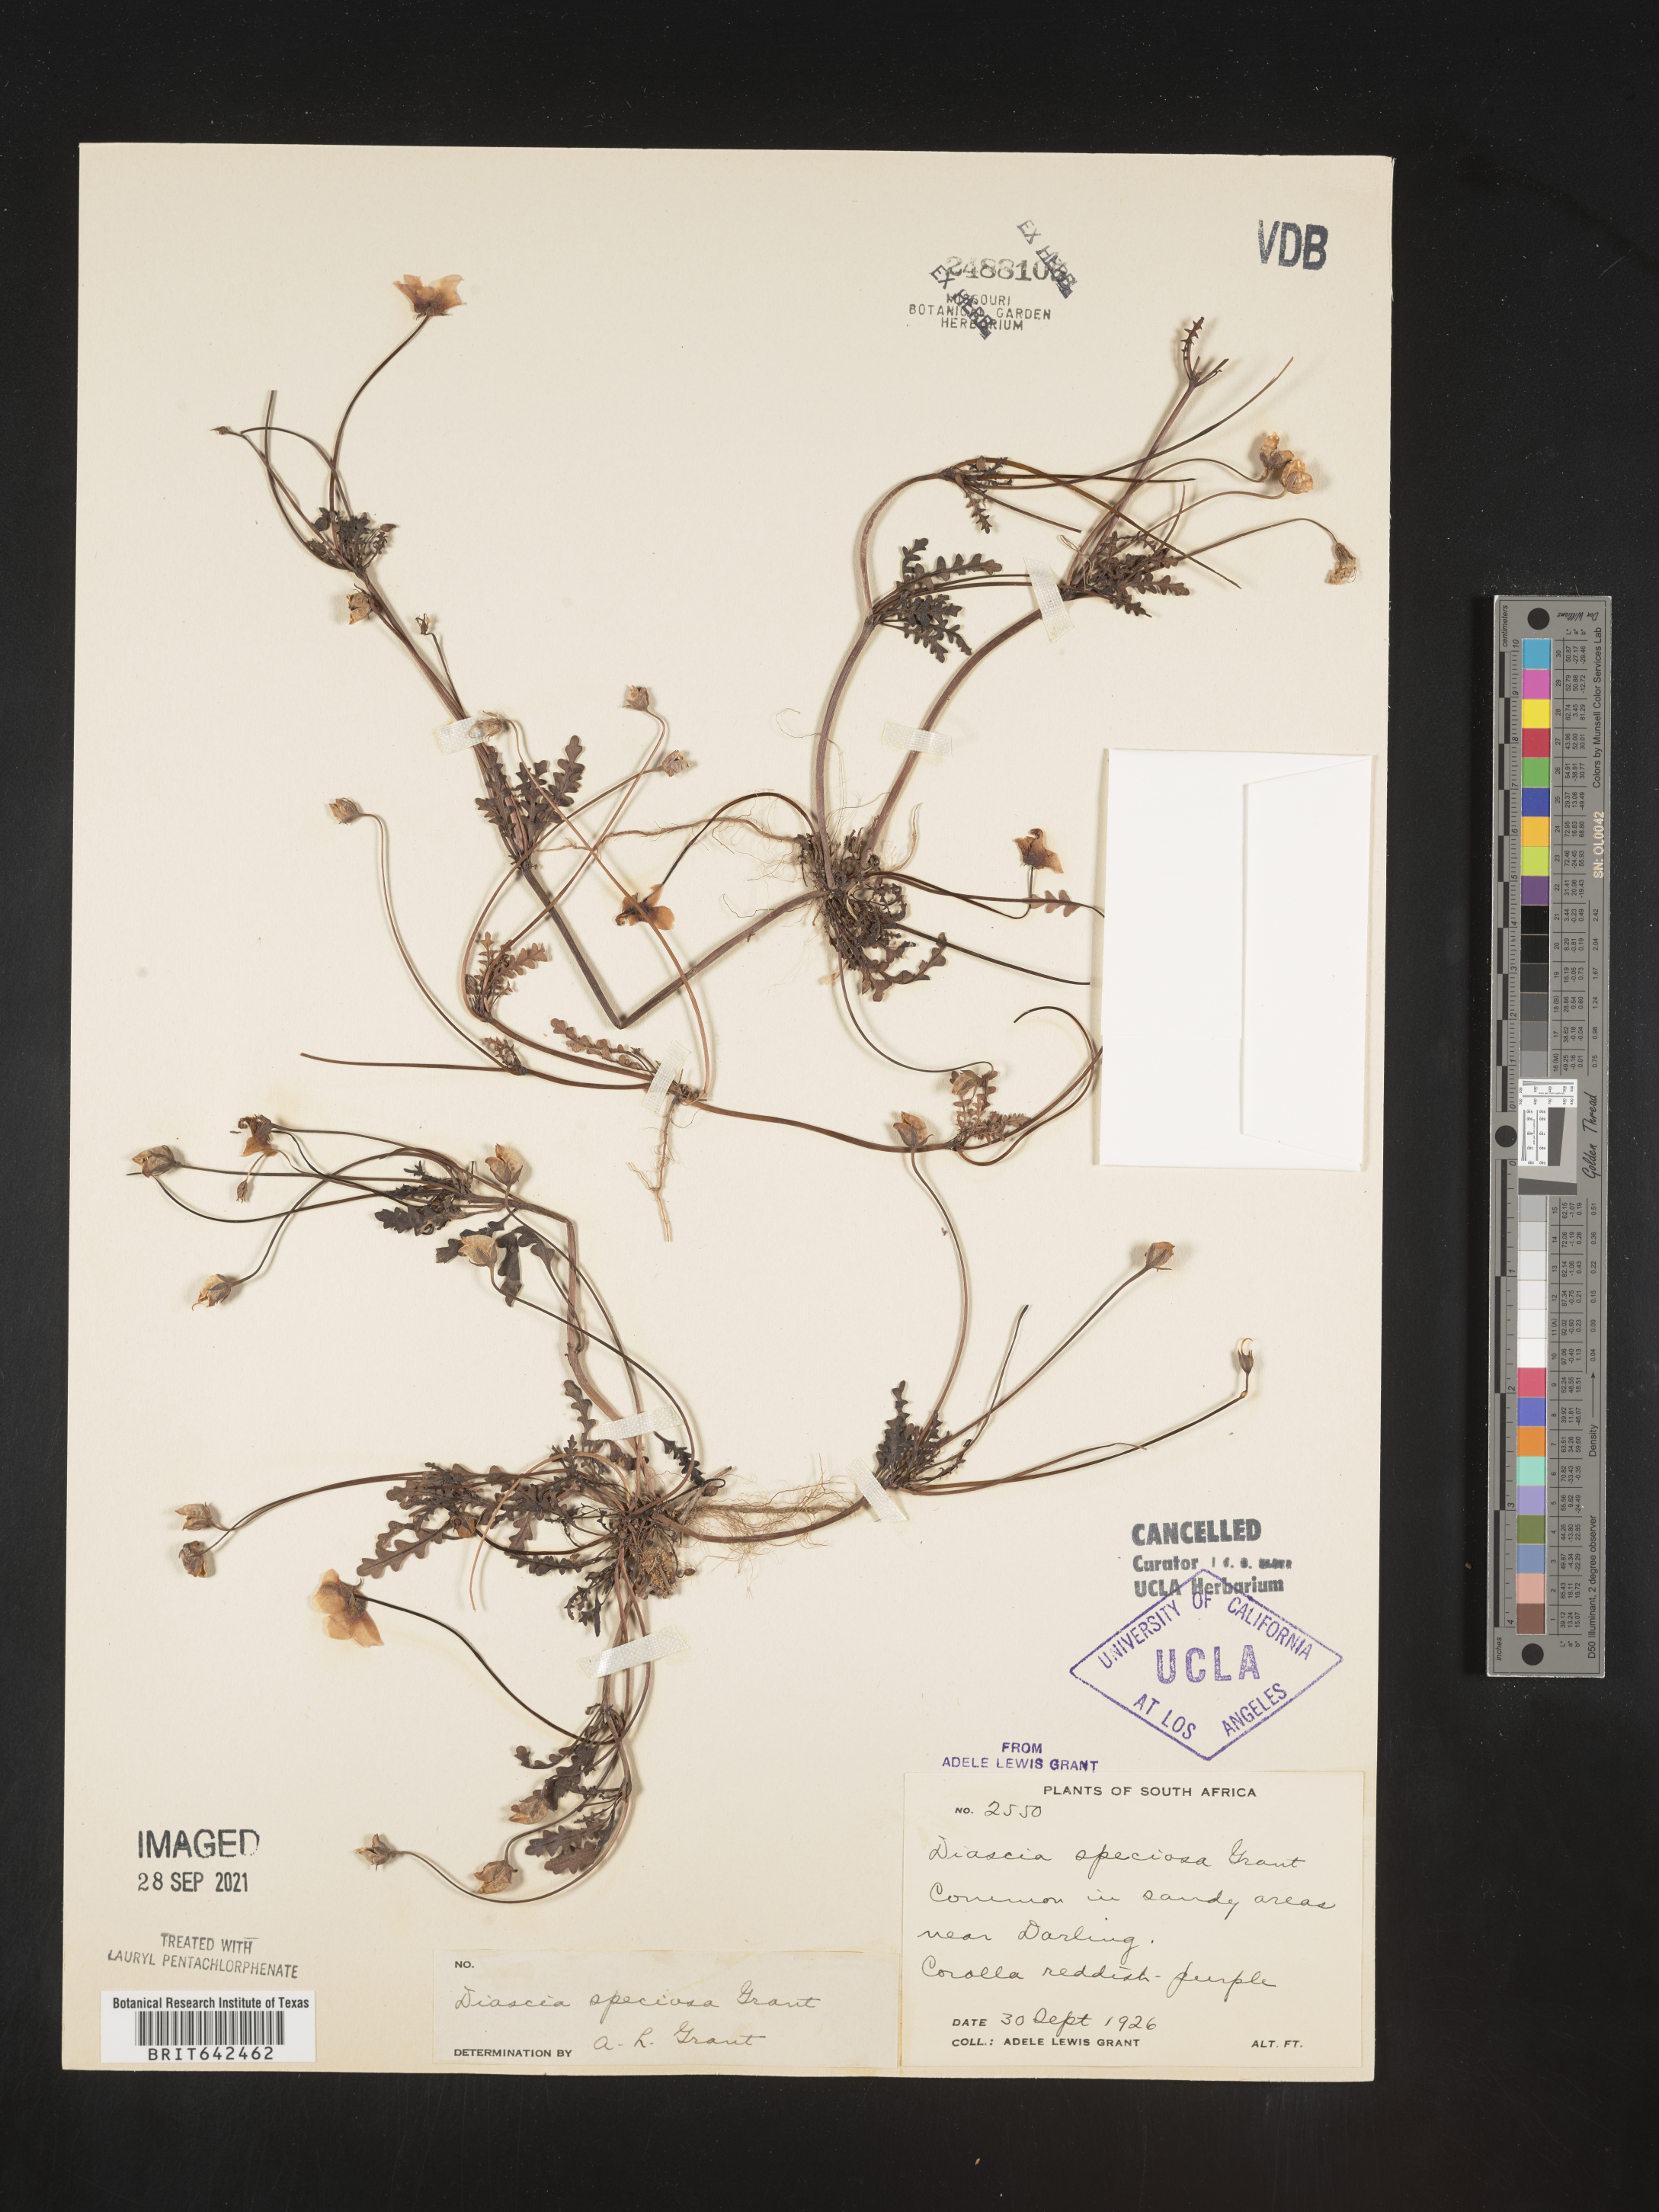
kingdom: Plantae
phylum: Tracheophyta
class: Magnoliopsida
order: Lamiales
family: Scrophulariaceae
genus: Diascia
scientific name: Diascia
